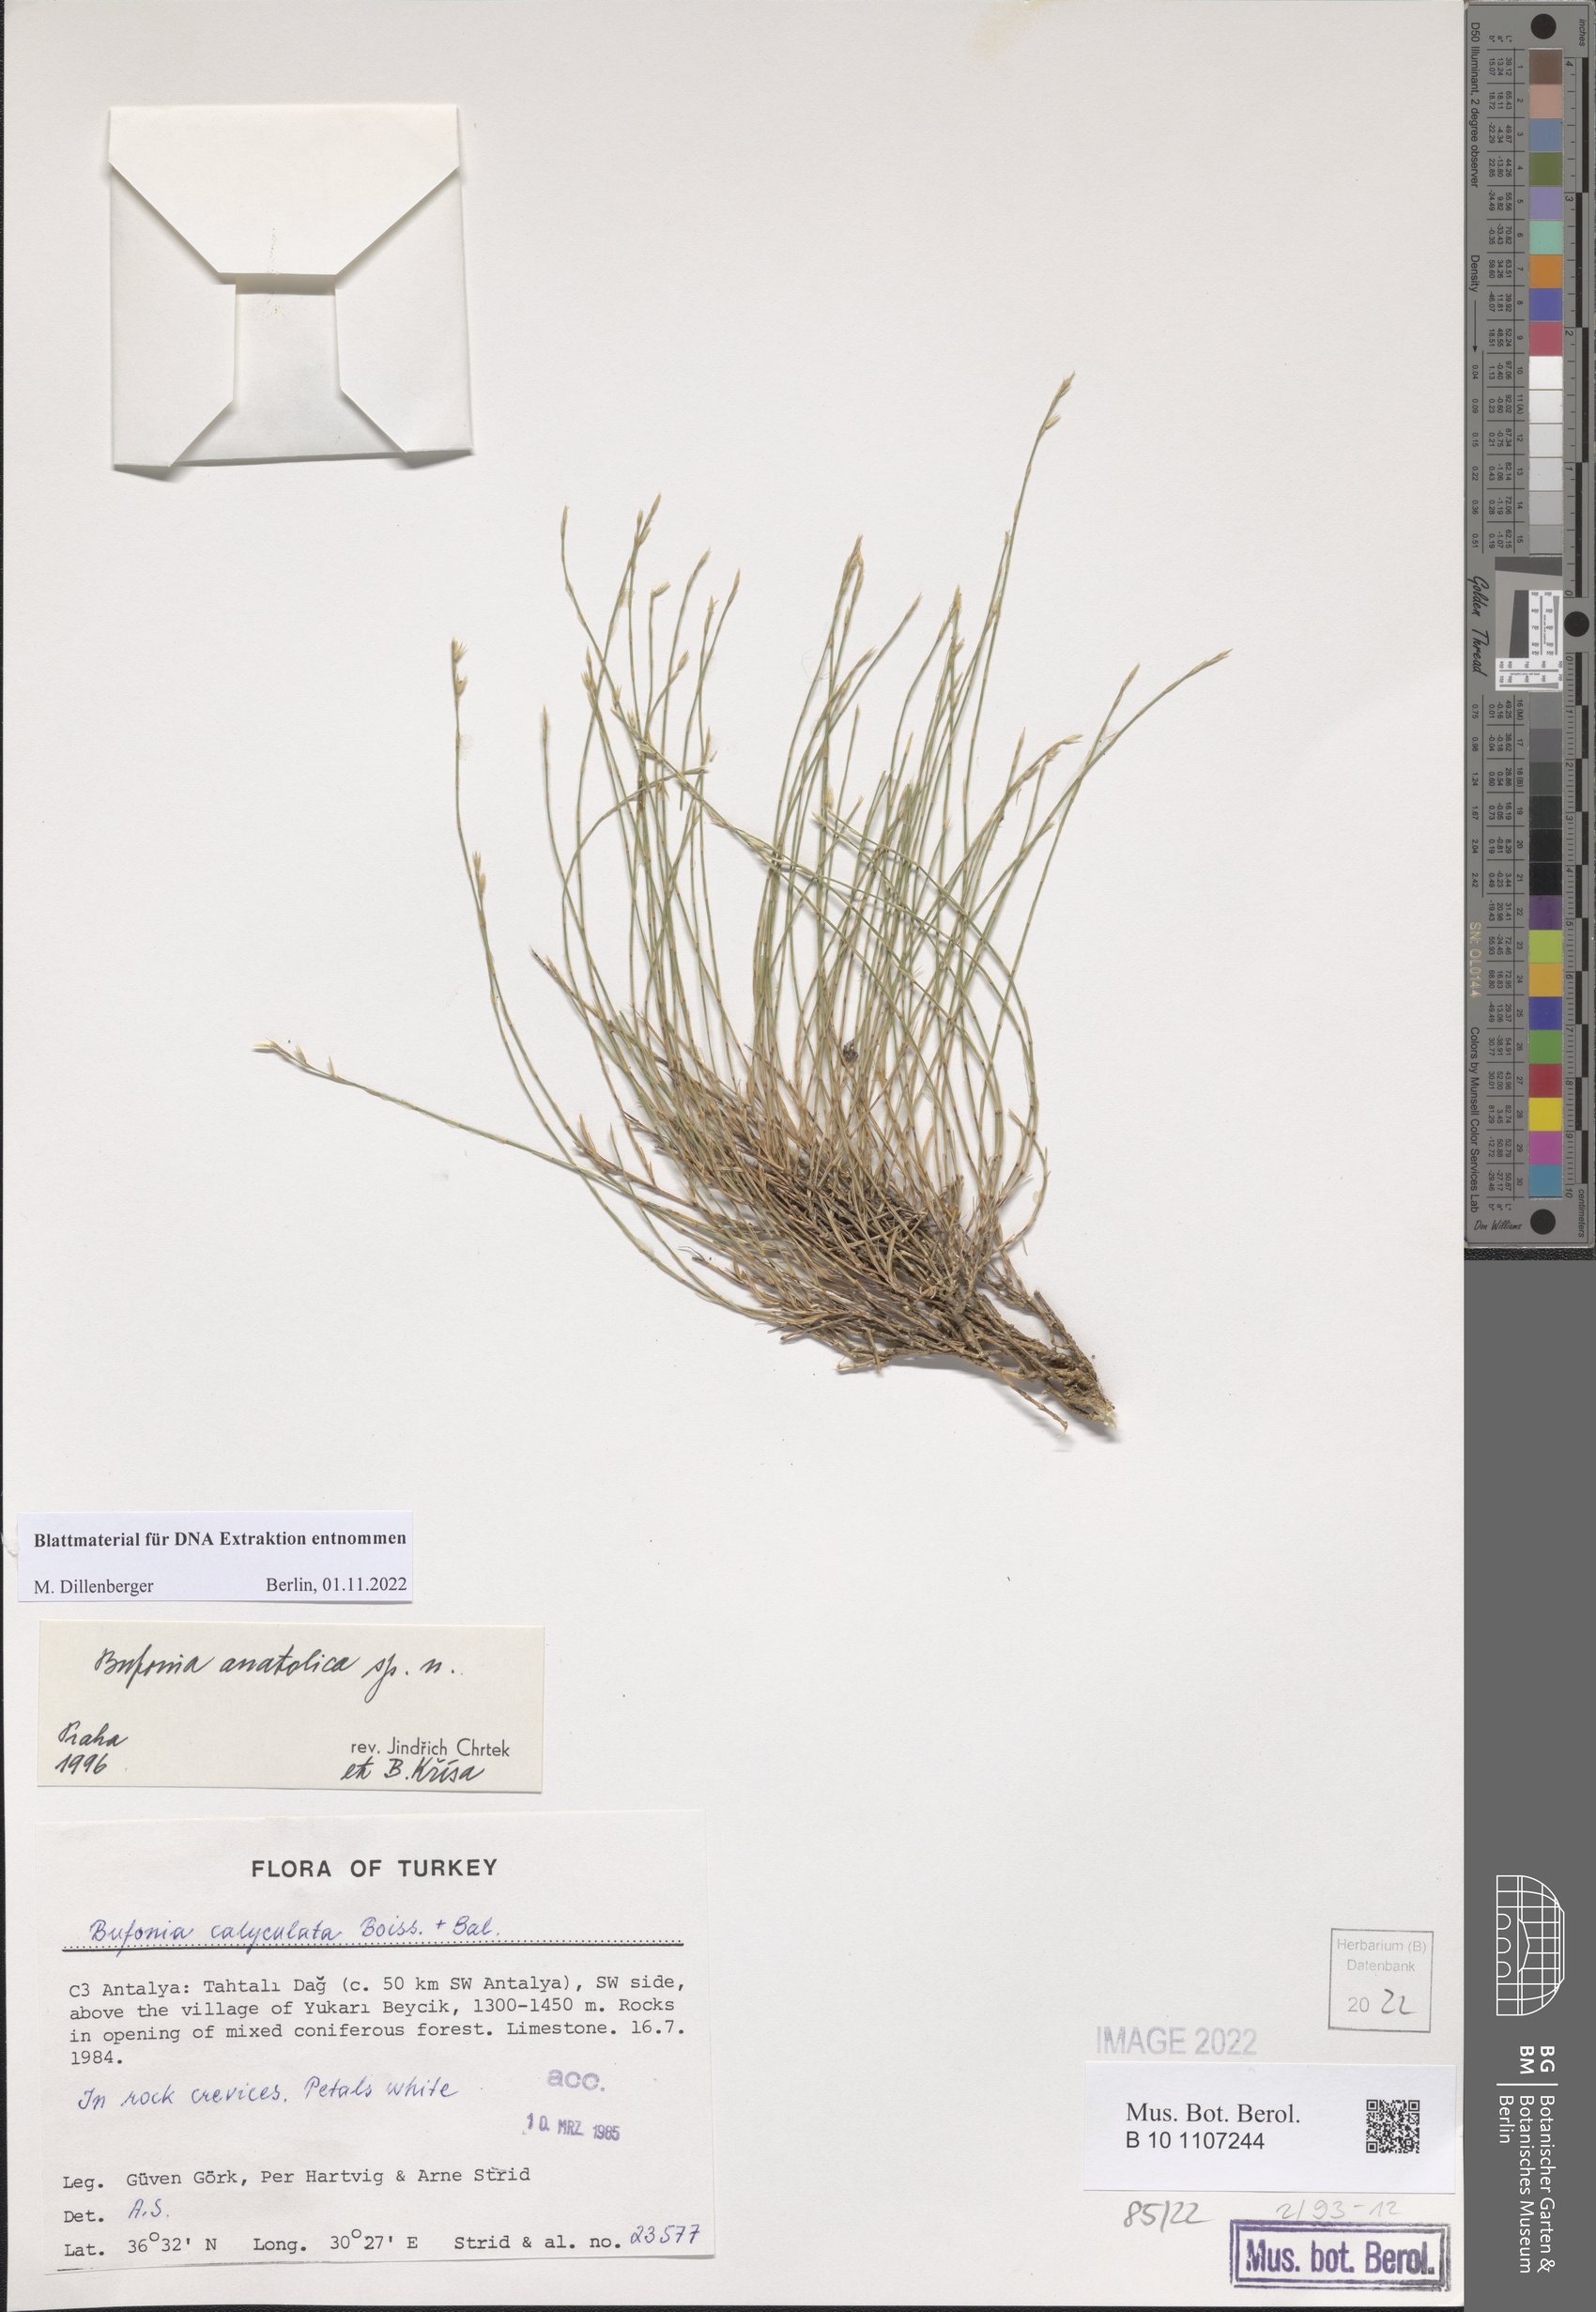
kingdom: Plantae
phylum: Tracheophyta
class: Magnoliopsida
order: Caryophyllales
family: Caryophyllaceae
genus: Bufonia
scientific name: Bufonia anatolica
